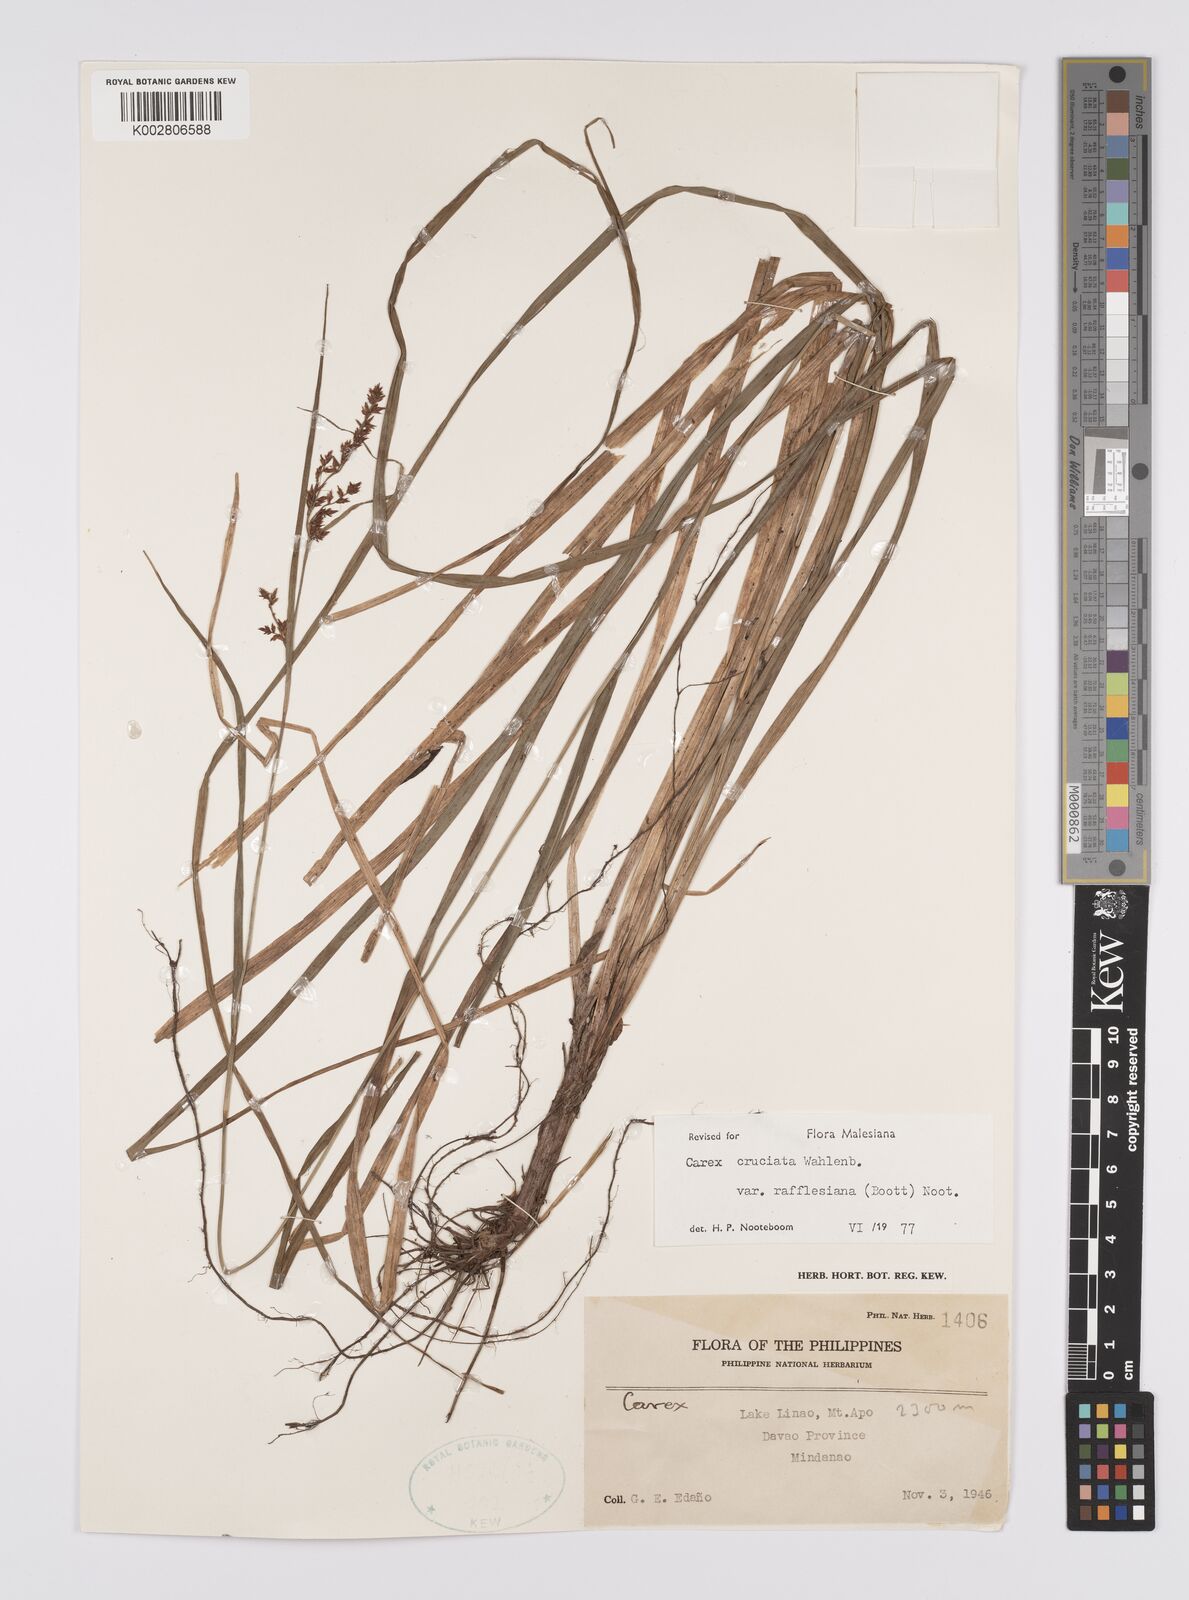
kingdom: Plantae
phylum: Tracheophyta
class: Liliopsida
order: Poales
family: Cyperaceae
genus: Carex
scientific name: Carex rafflesiana
